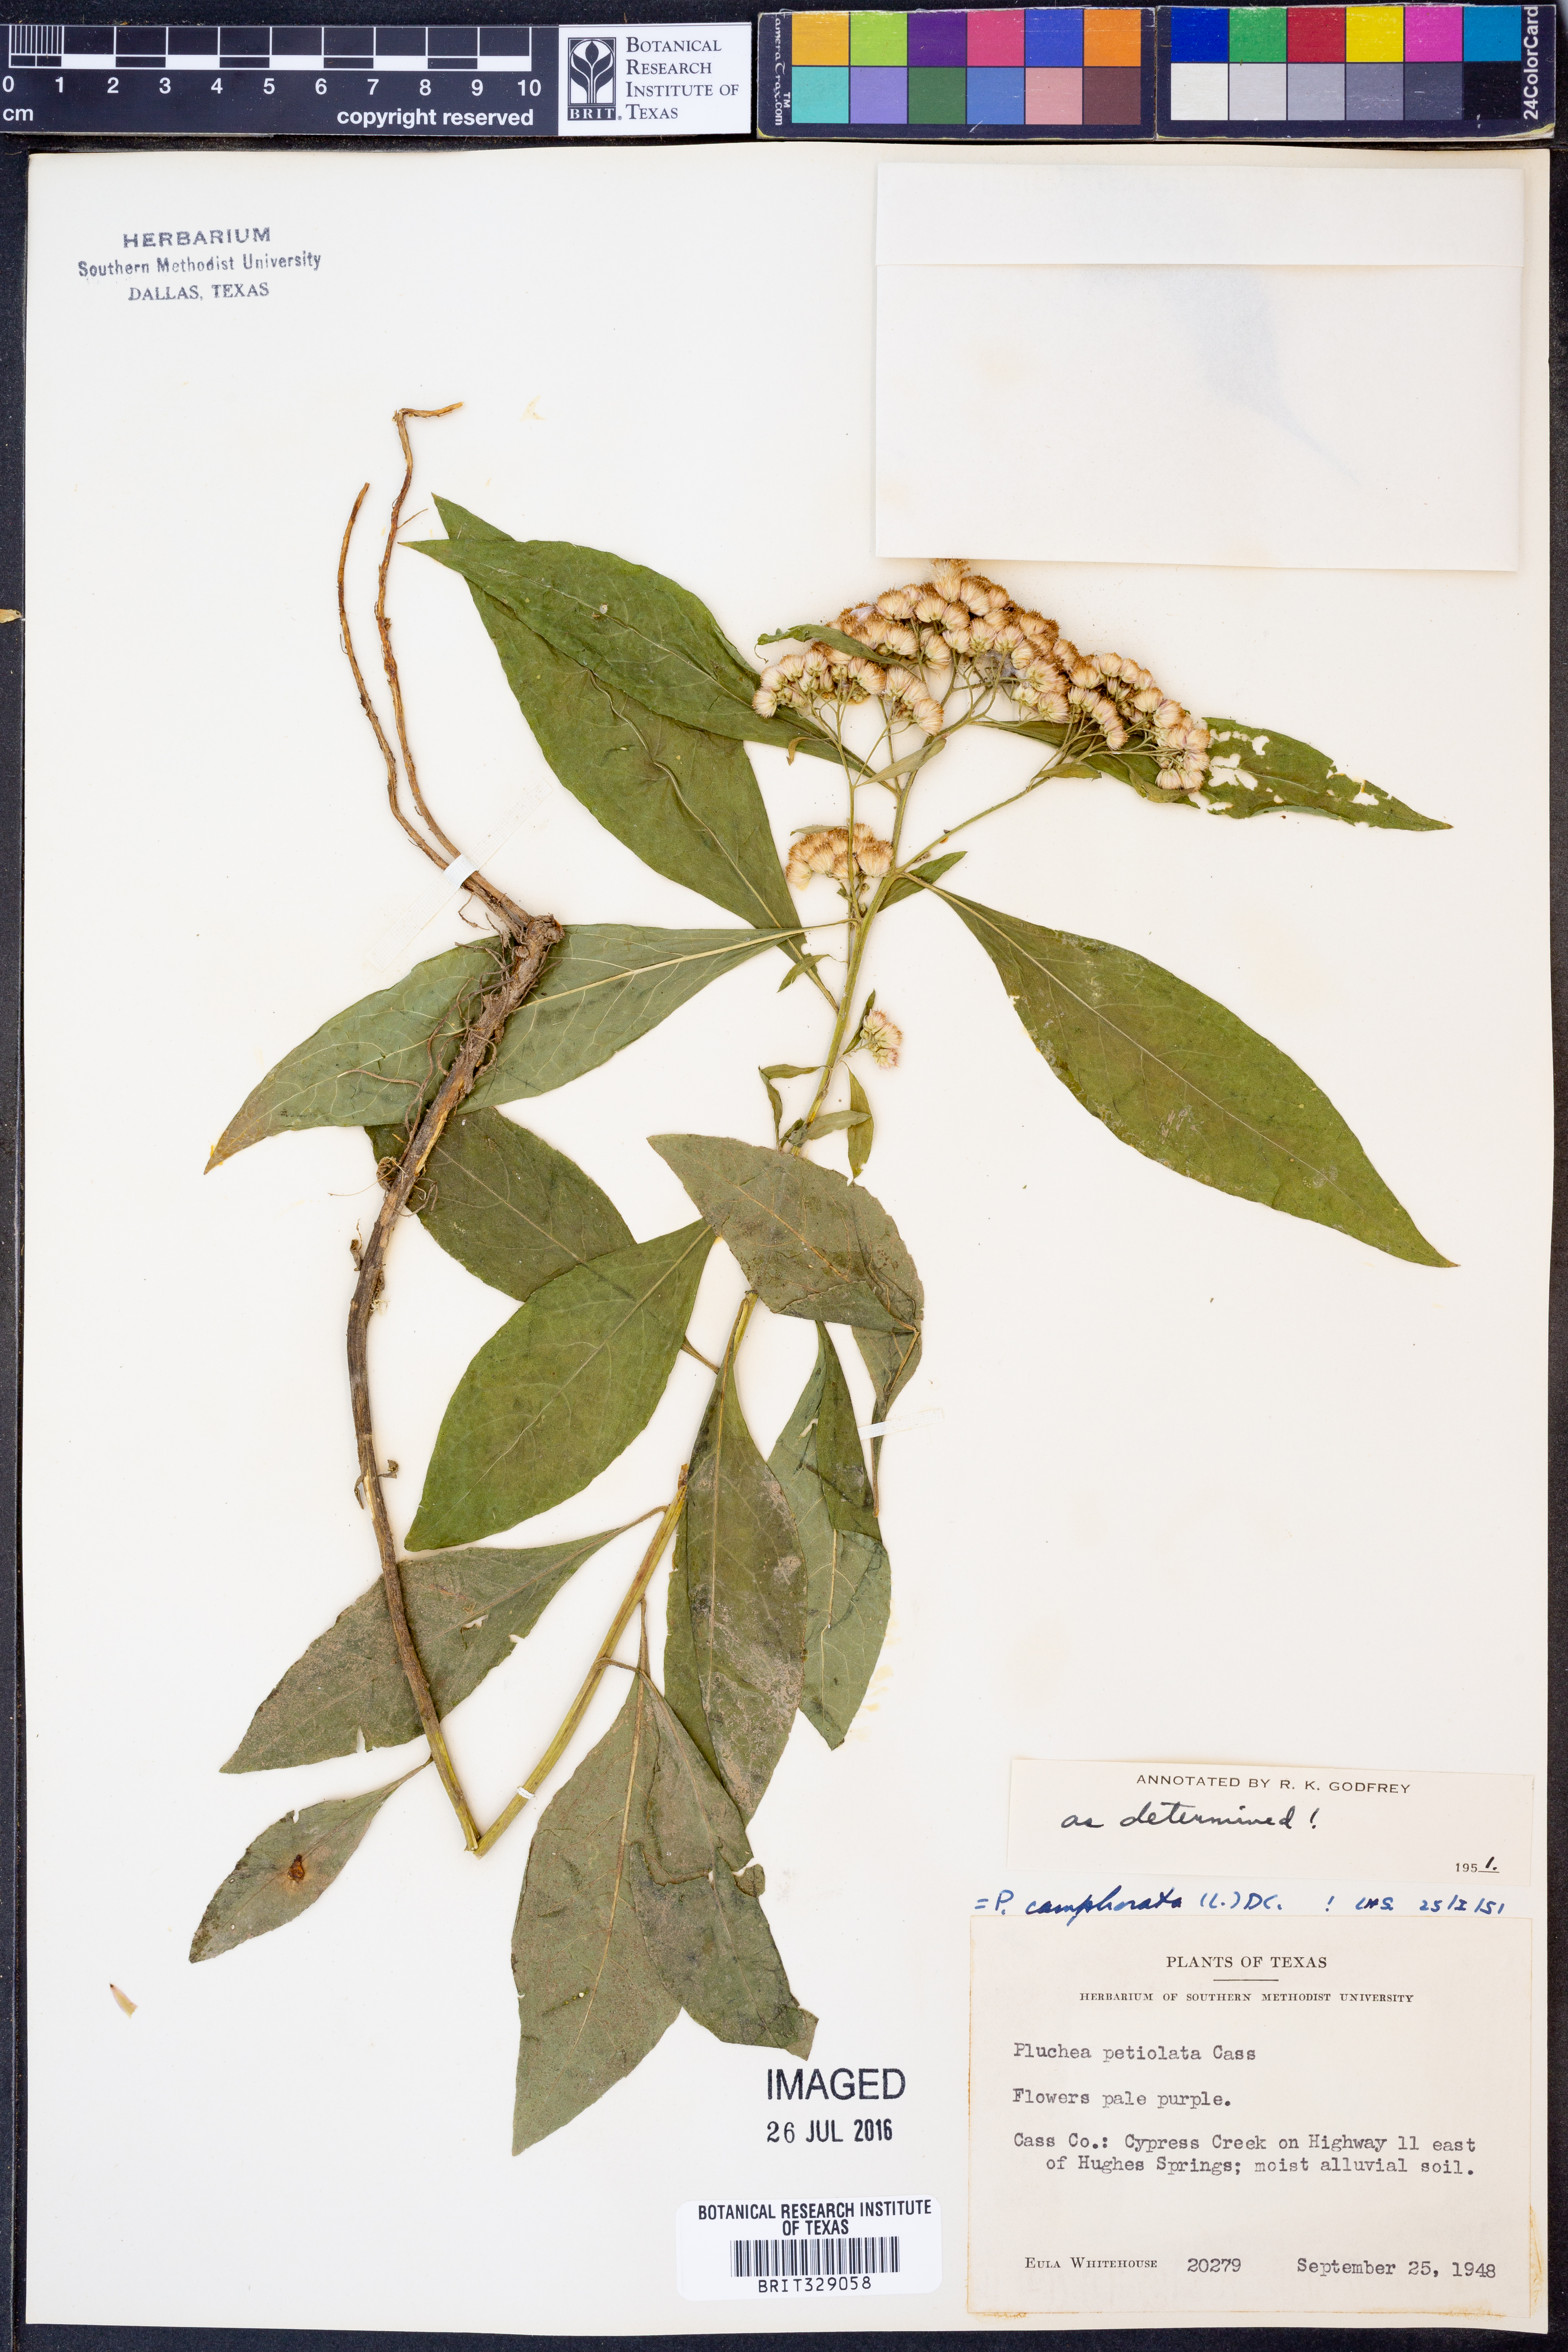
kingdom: Plantae
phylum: Tracheophyta
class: Magnoliopsida
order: Asterales
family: Asteraceae
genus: Pluchea
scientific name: Pluchea camphorata
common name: Camphor pluchea
